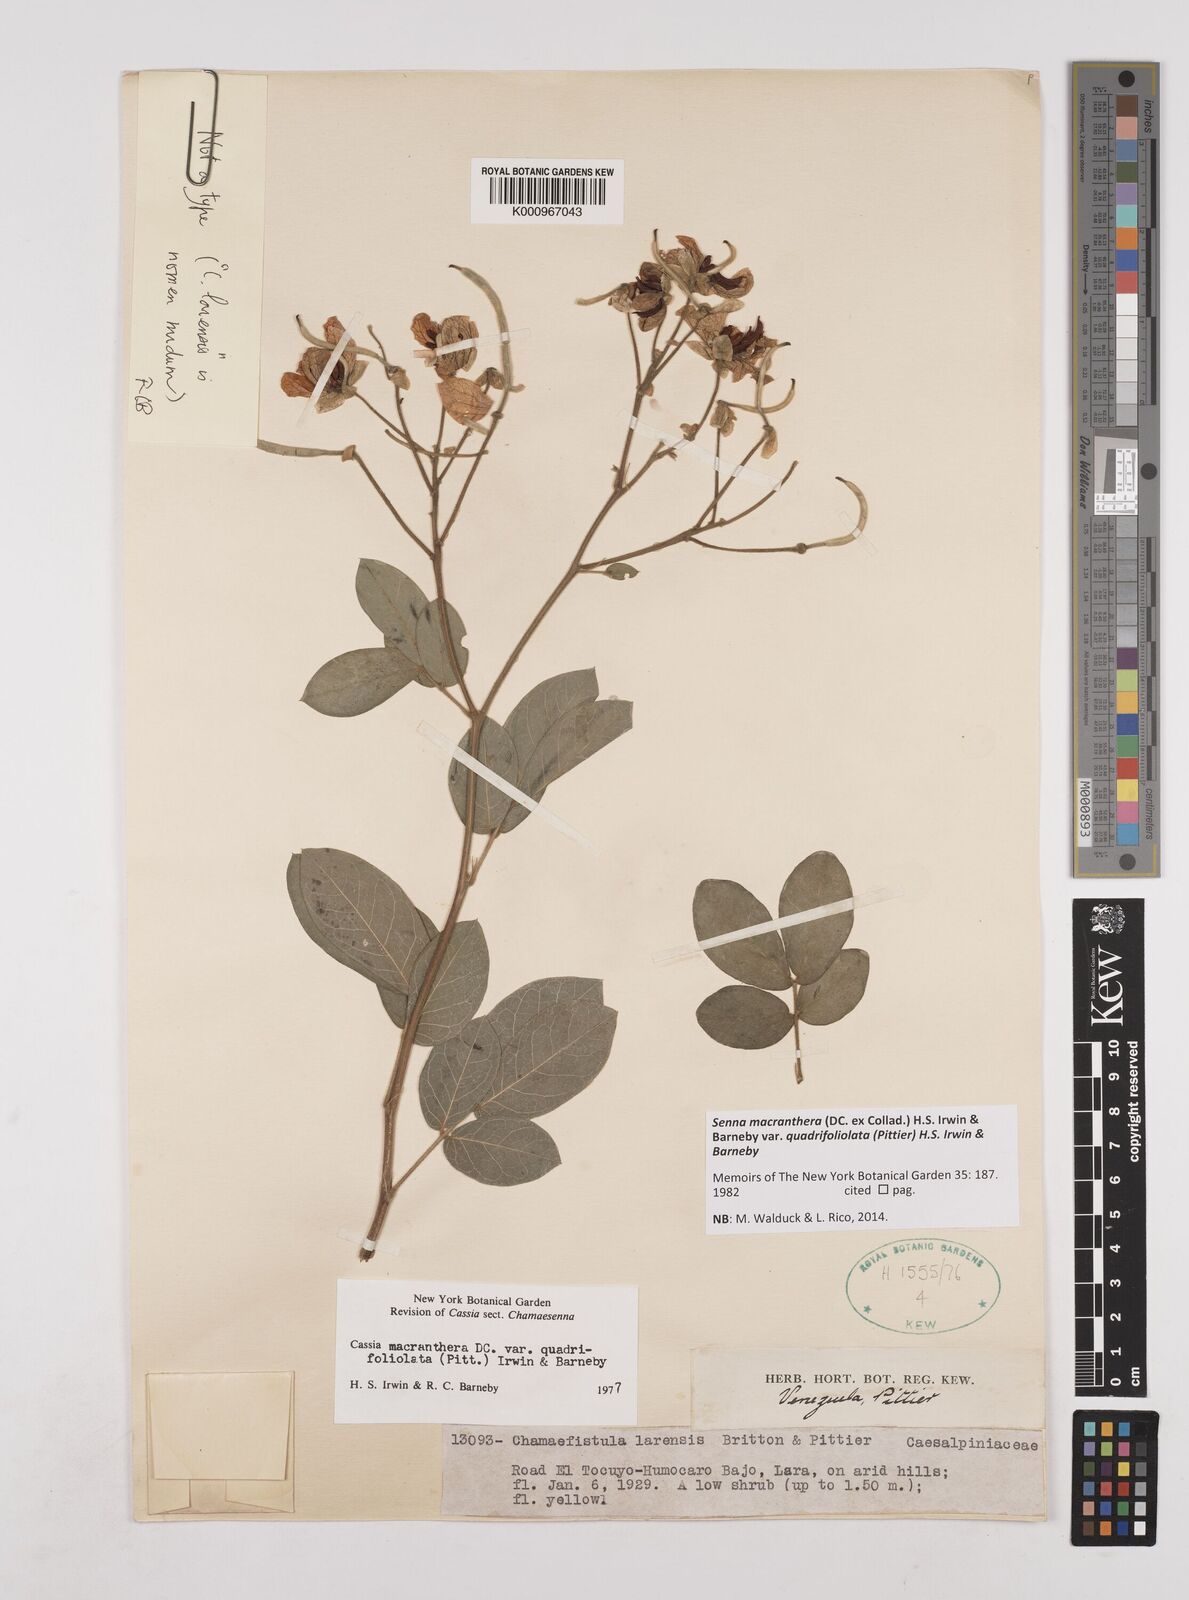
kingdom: Plantae
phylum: Tracheophyta
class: Magnoliopsida
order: Fabales
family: Fabaceae
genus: Senna
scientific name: Senna macranthera
